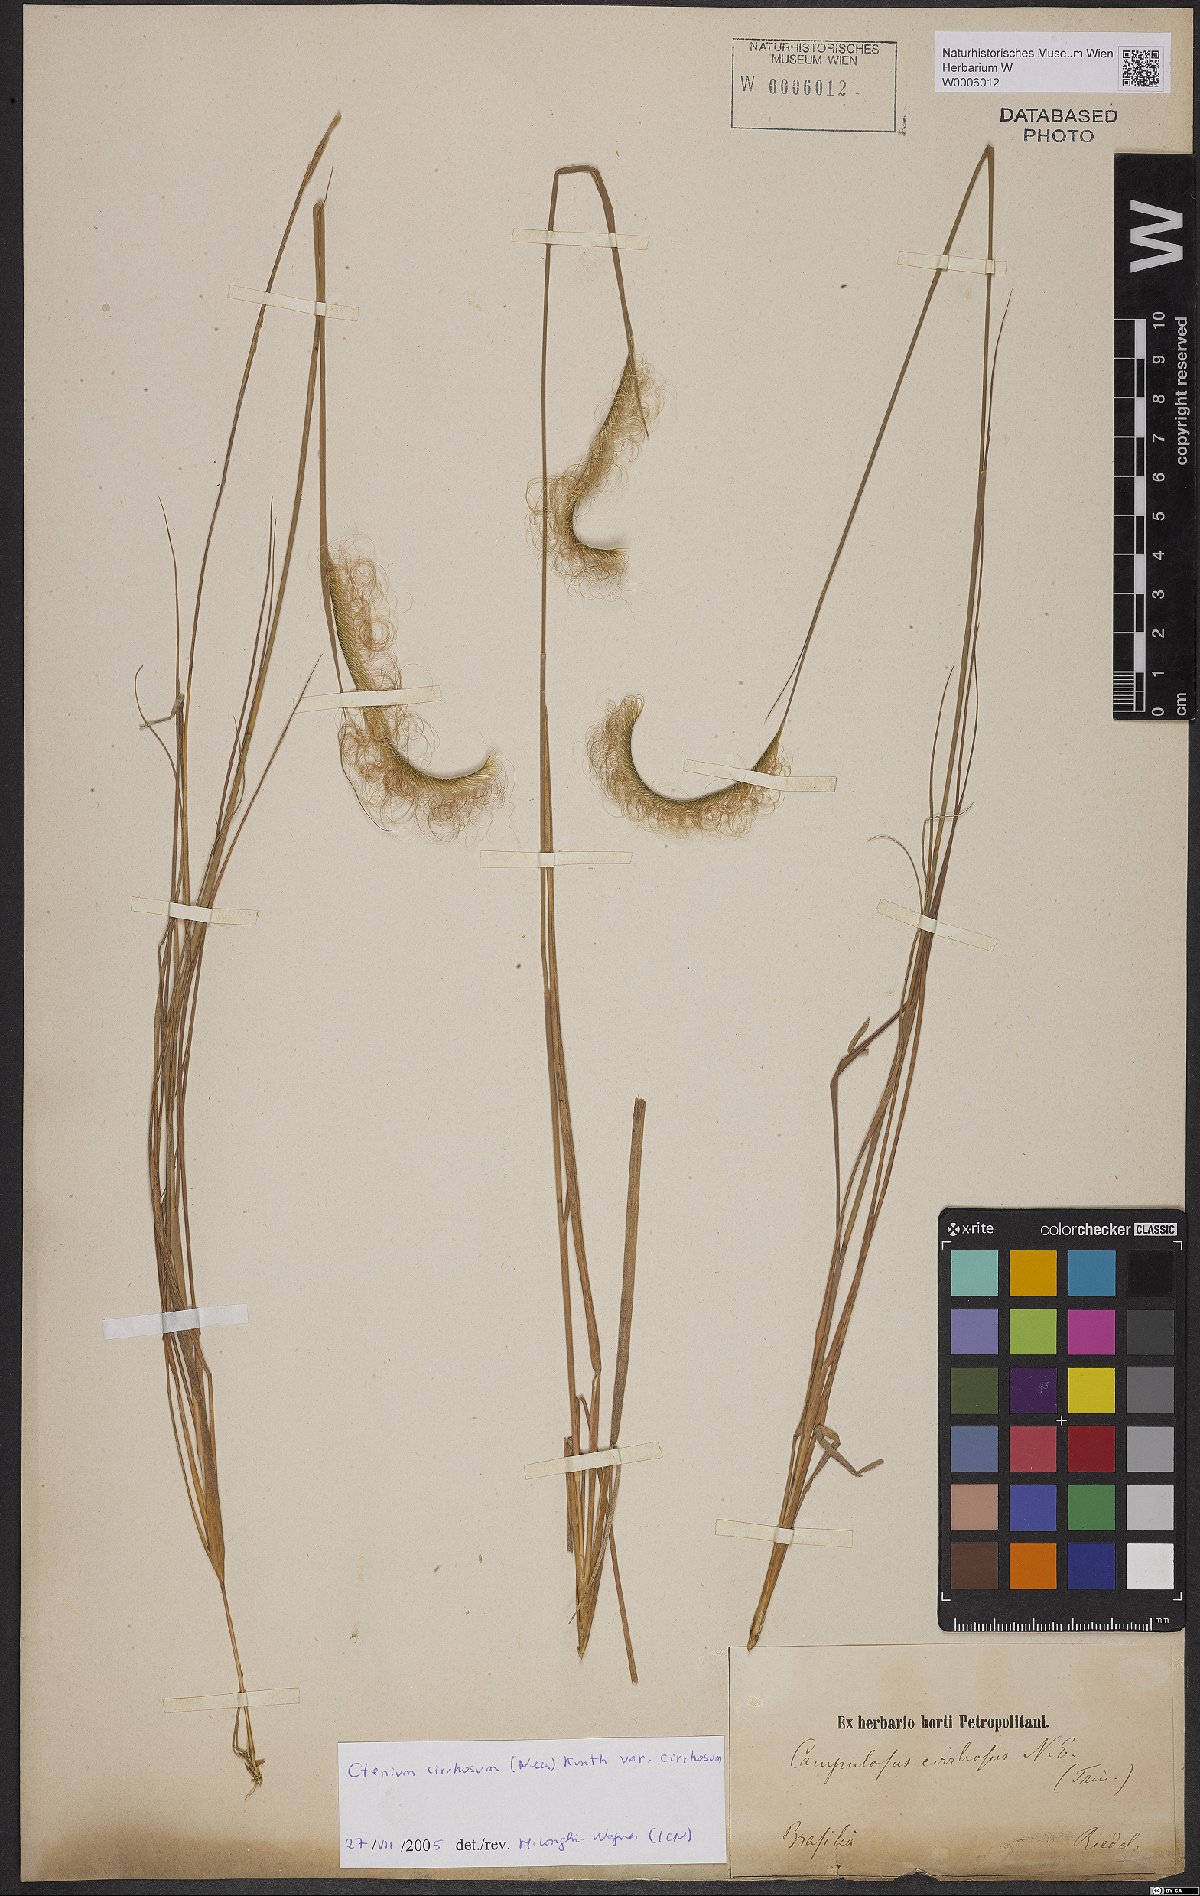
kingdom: Plantae
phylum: Tracheophyta
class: Liliopsida
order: Poales
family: Poaceae
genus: Ctenium
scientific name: Ctenium cirrhosum
